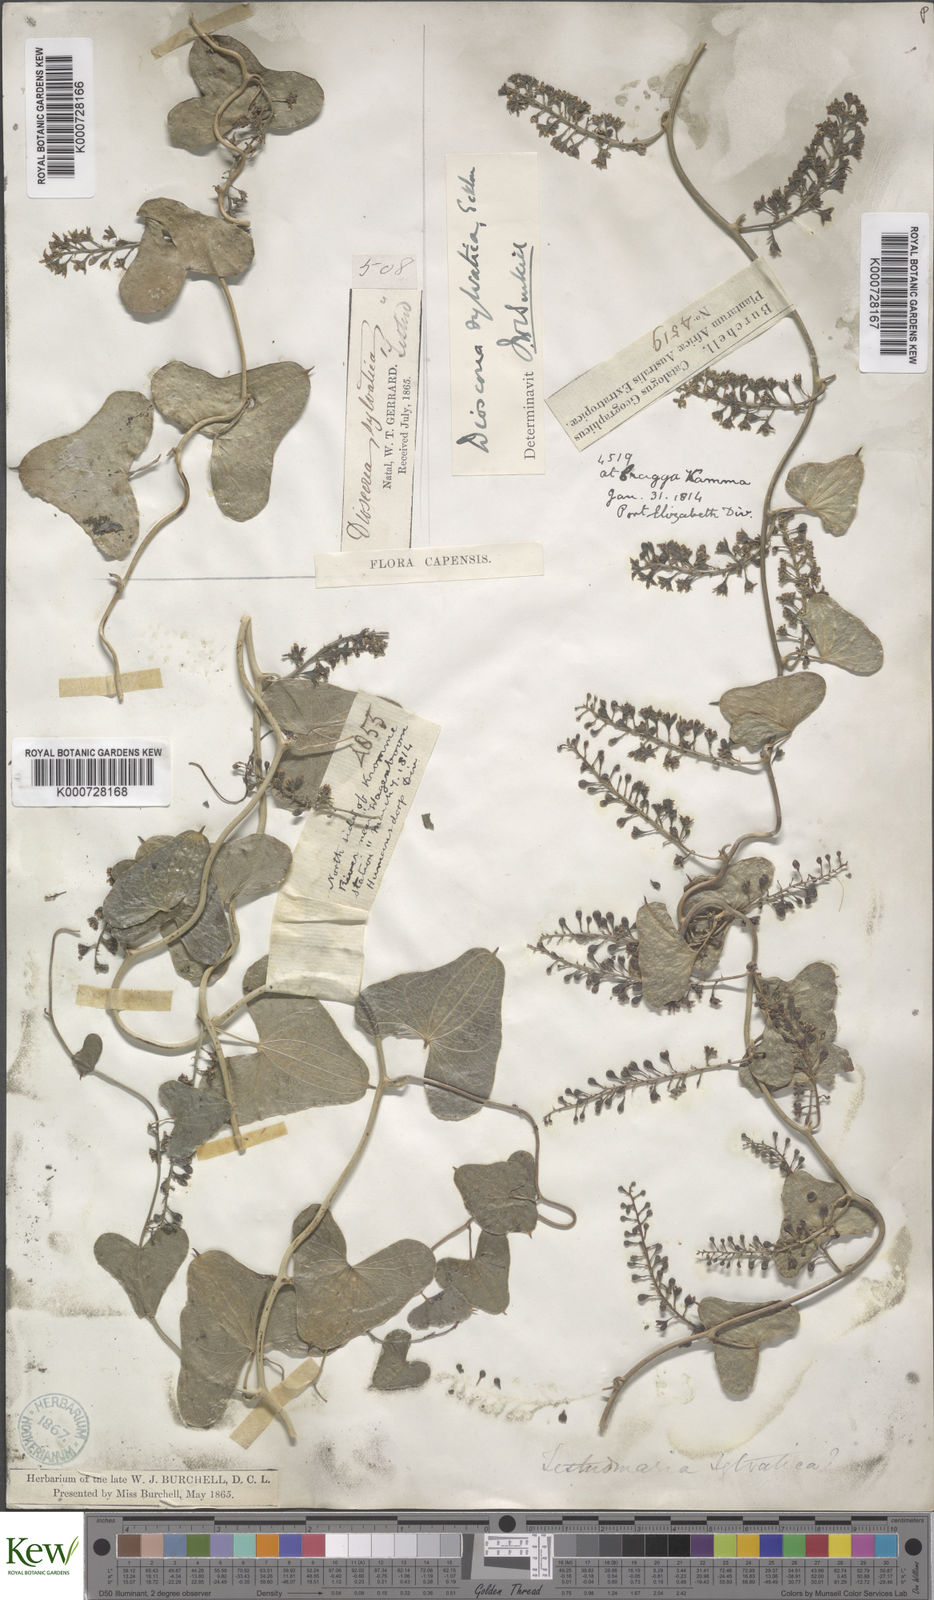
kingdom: Plantae
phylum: Tracheophyta
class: Liliopsida
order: Dioscoreales
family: Dioscoreaceae
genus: Dioscorea
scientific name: Dioscorea sylvatica
